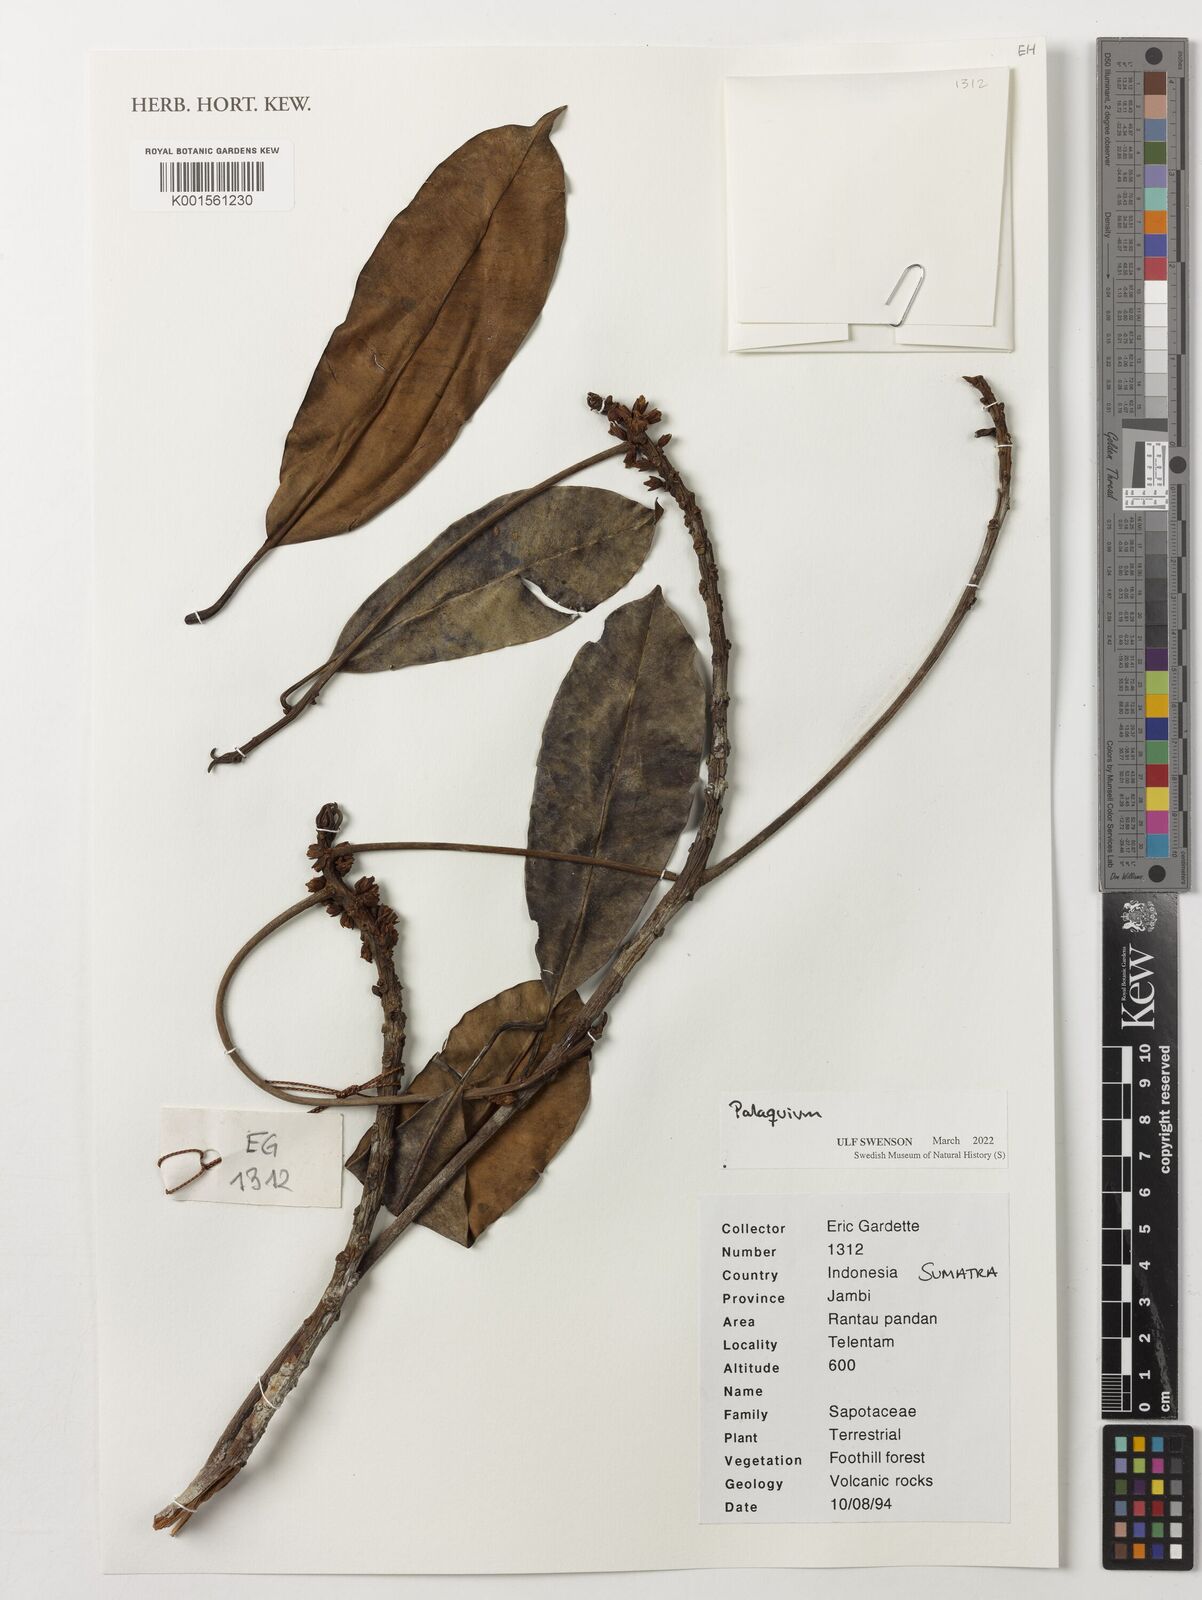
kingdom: Plantae
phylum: Tracheophyta
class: Magnoliopsida
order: Ericales
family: Sapotaceae
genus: Palaquium
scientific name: Palaquium
